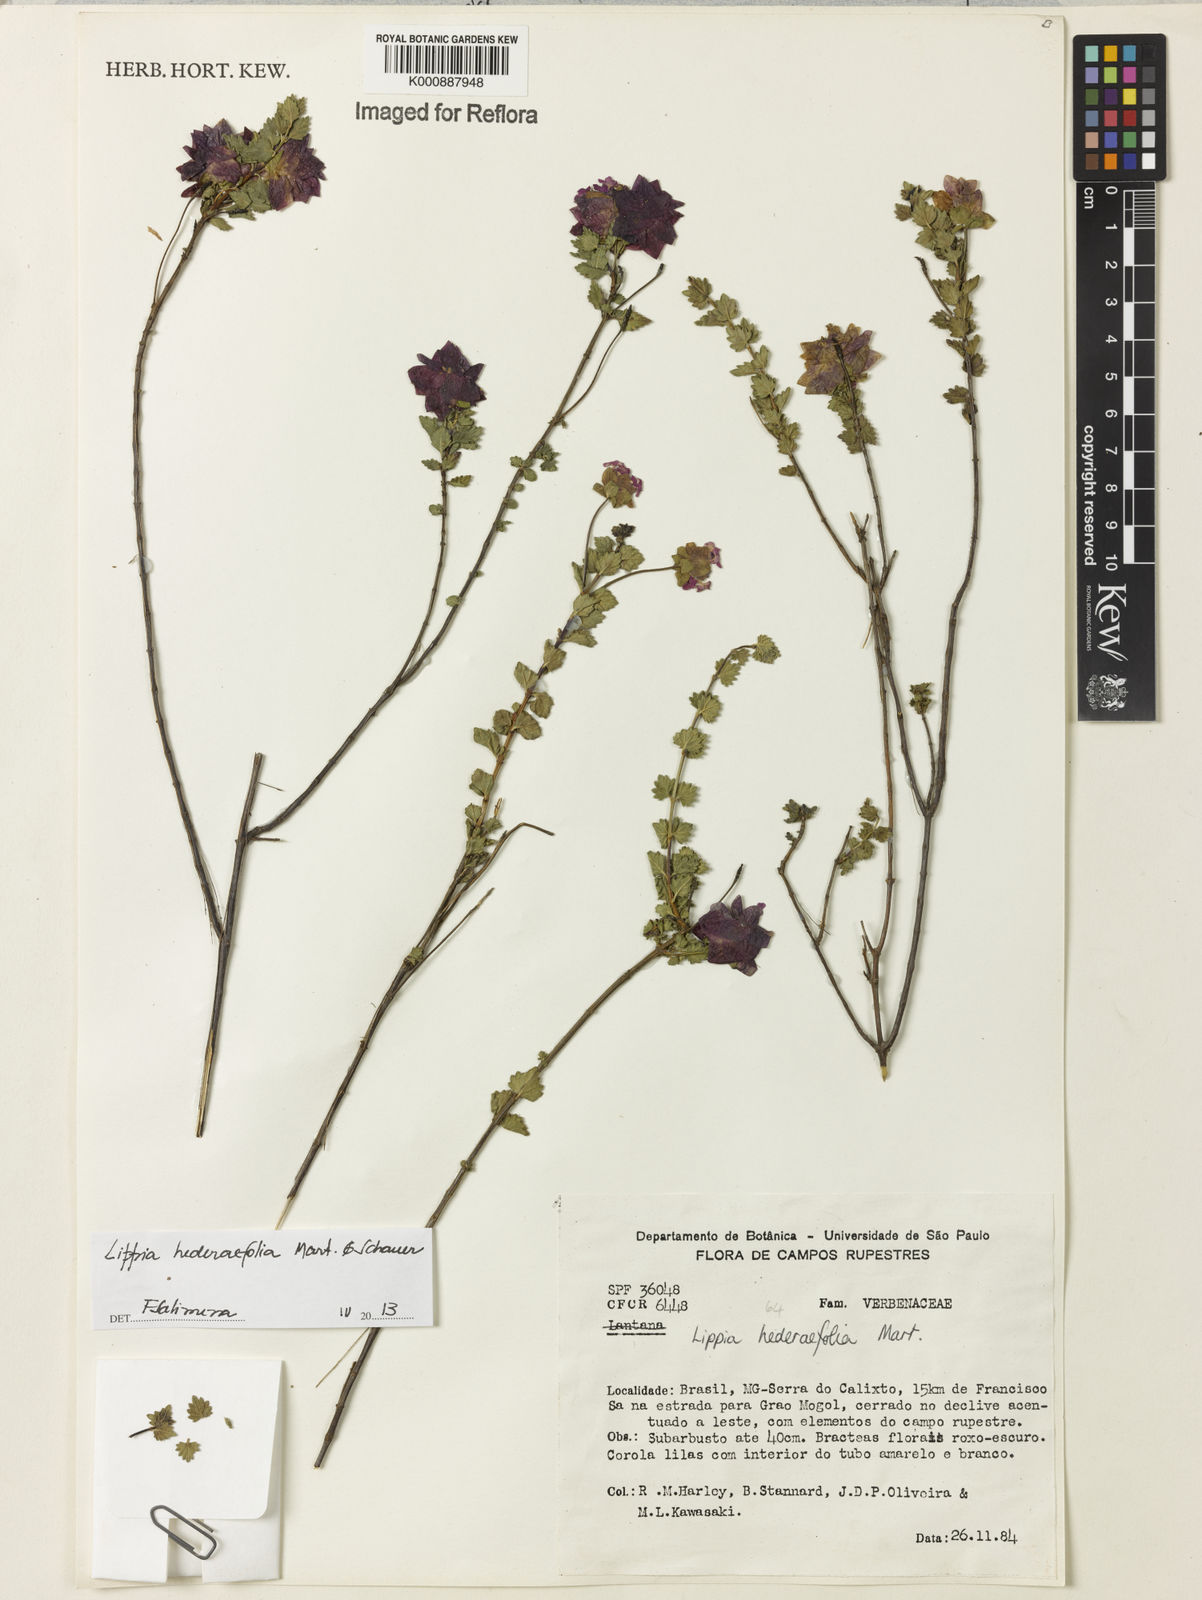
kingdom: Plantae
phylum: Tracheophyta
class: Magnoliopsida
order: Lamiales
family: Verbenaceae
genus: Lippia
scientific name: Lippia hederifolia
